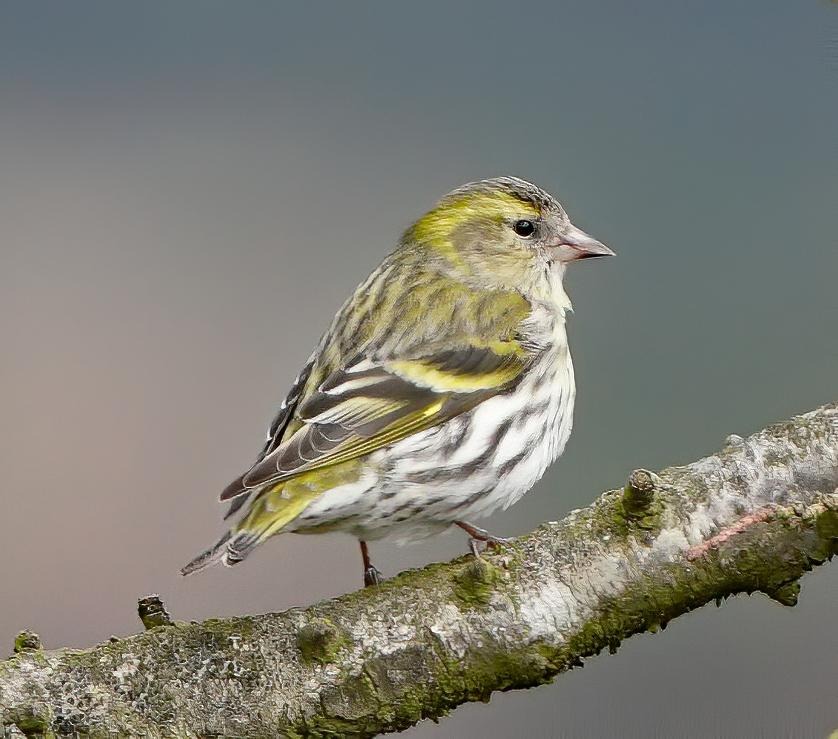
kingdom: Animalia
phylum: Chordata
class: Aves
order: Passeriformes
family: Fringillidae
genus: Spinus
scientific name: Spinus spinus
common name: Grønsisken
